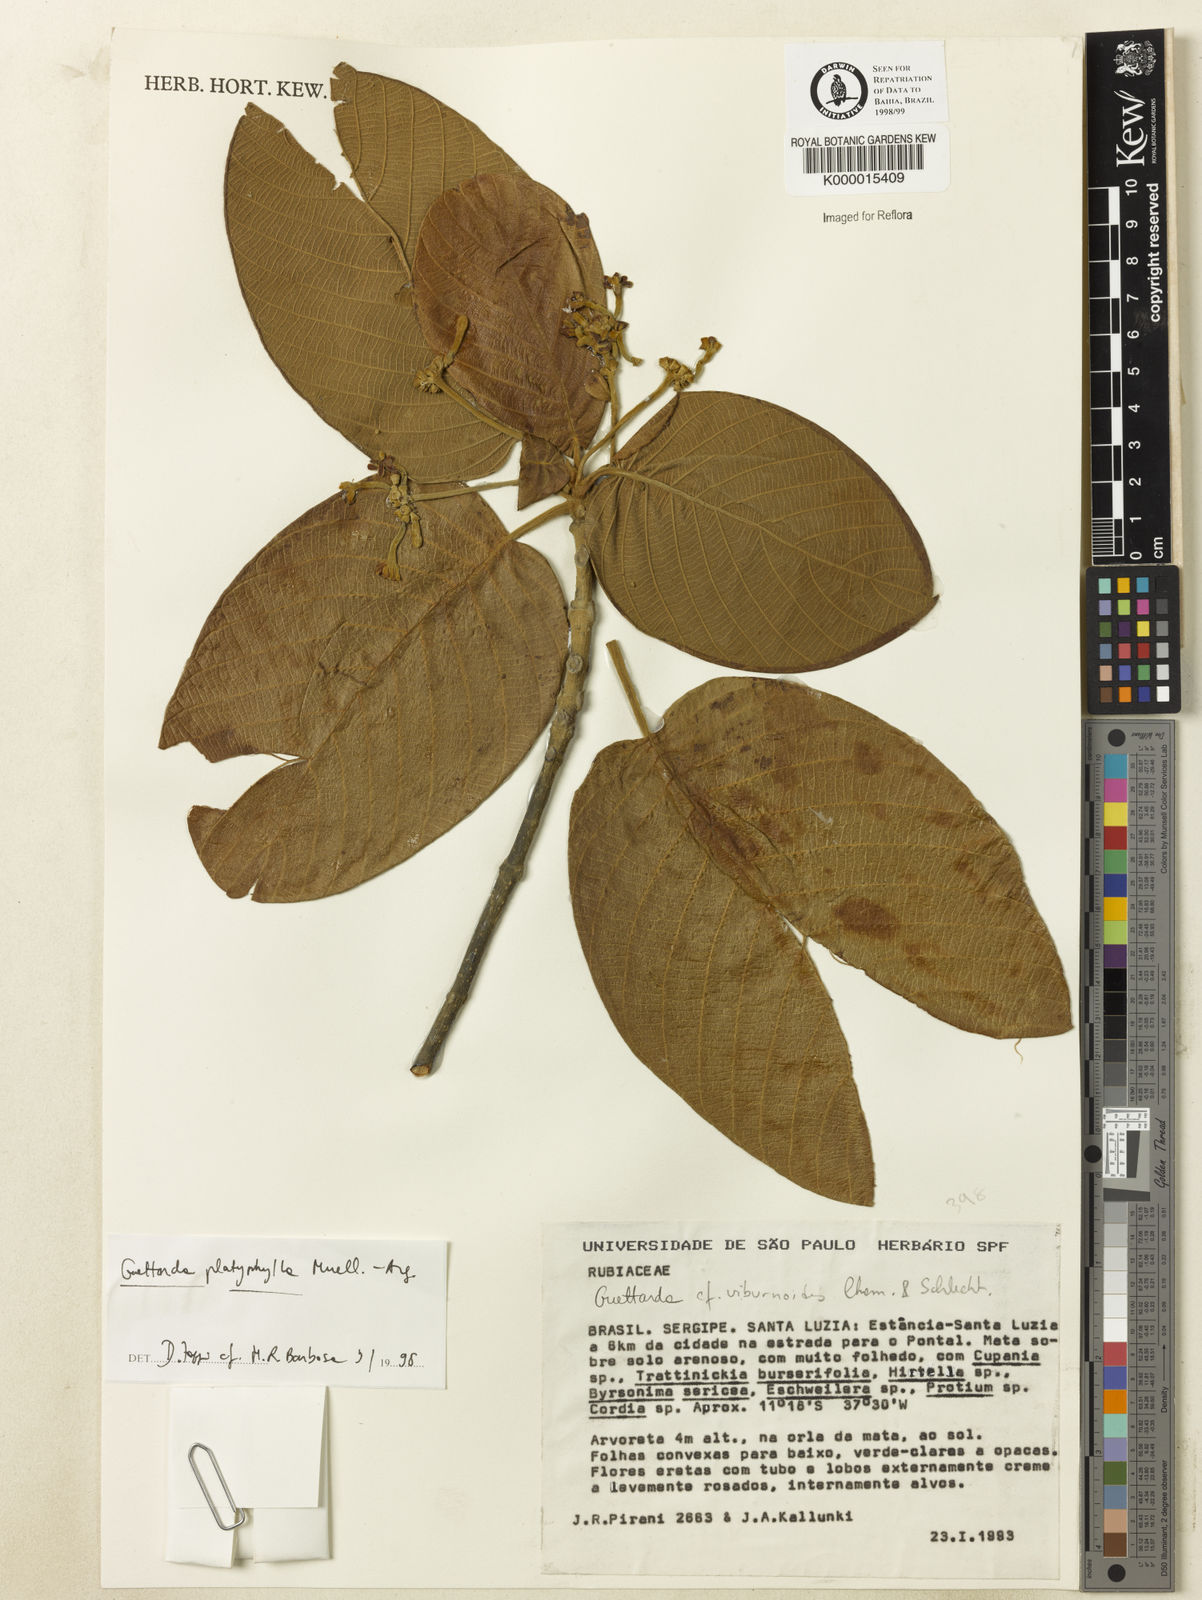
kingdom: Plantae
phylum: Tracheophyta
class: Magnoliopsida
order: Gentianales
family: Rubiaceae
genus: Guettarda
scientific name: Guettarda viburnoides
